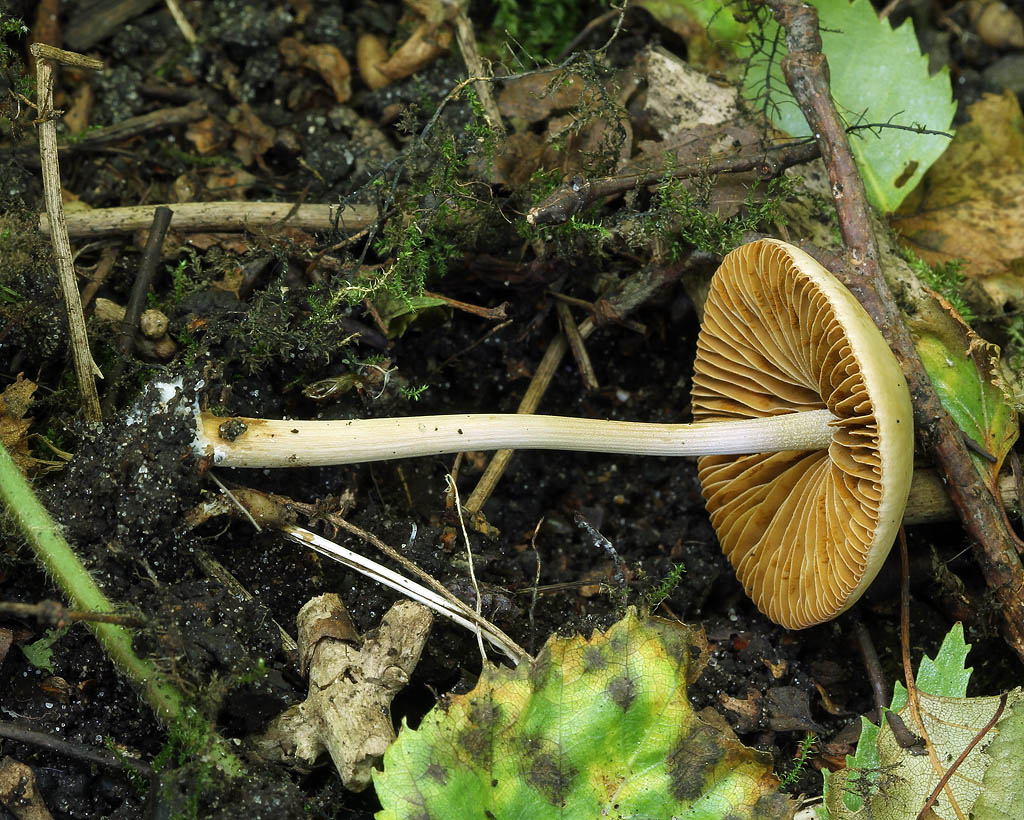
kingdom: Fungi
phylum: Basidiomycota
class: Agaricomycetes
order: Agaricales
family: Bolbitiaceae
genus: Conocybe
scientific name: Conocybe macrocephala
